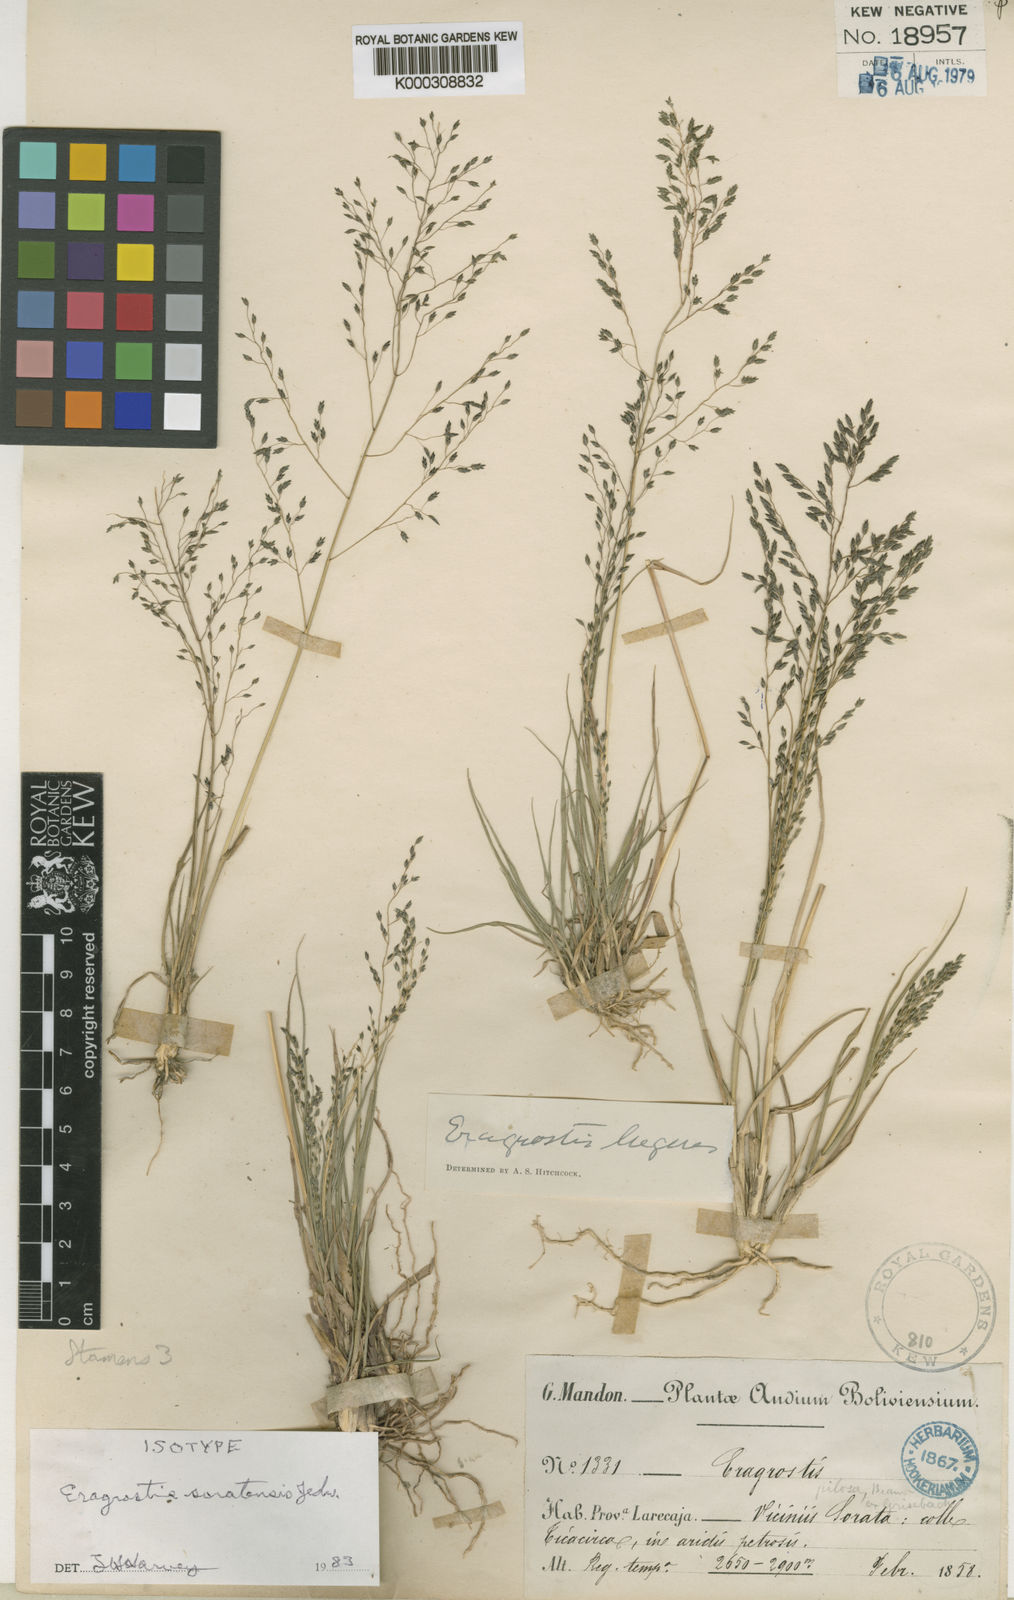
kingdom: Plantae
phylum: Tracheophyta
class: Liliopsida
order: Poales
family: Poaceae
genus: Eragrostis
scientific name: Eragrostis soratensis
